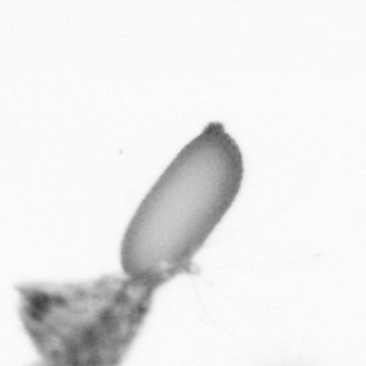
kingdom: Animalia
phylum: Arthropoda
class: Copepoda
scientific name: Copepoda
